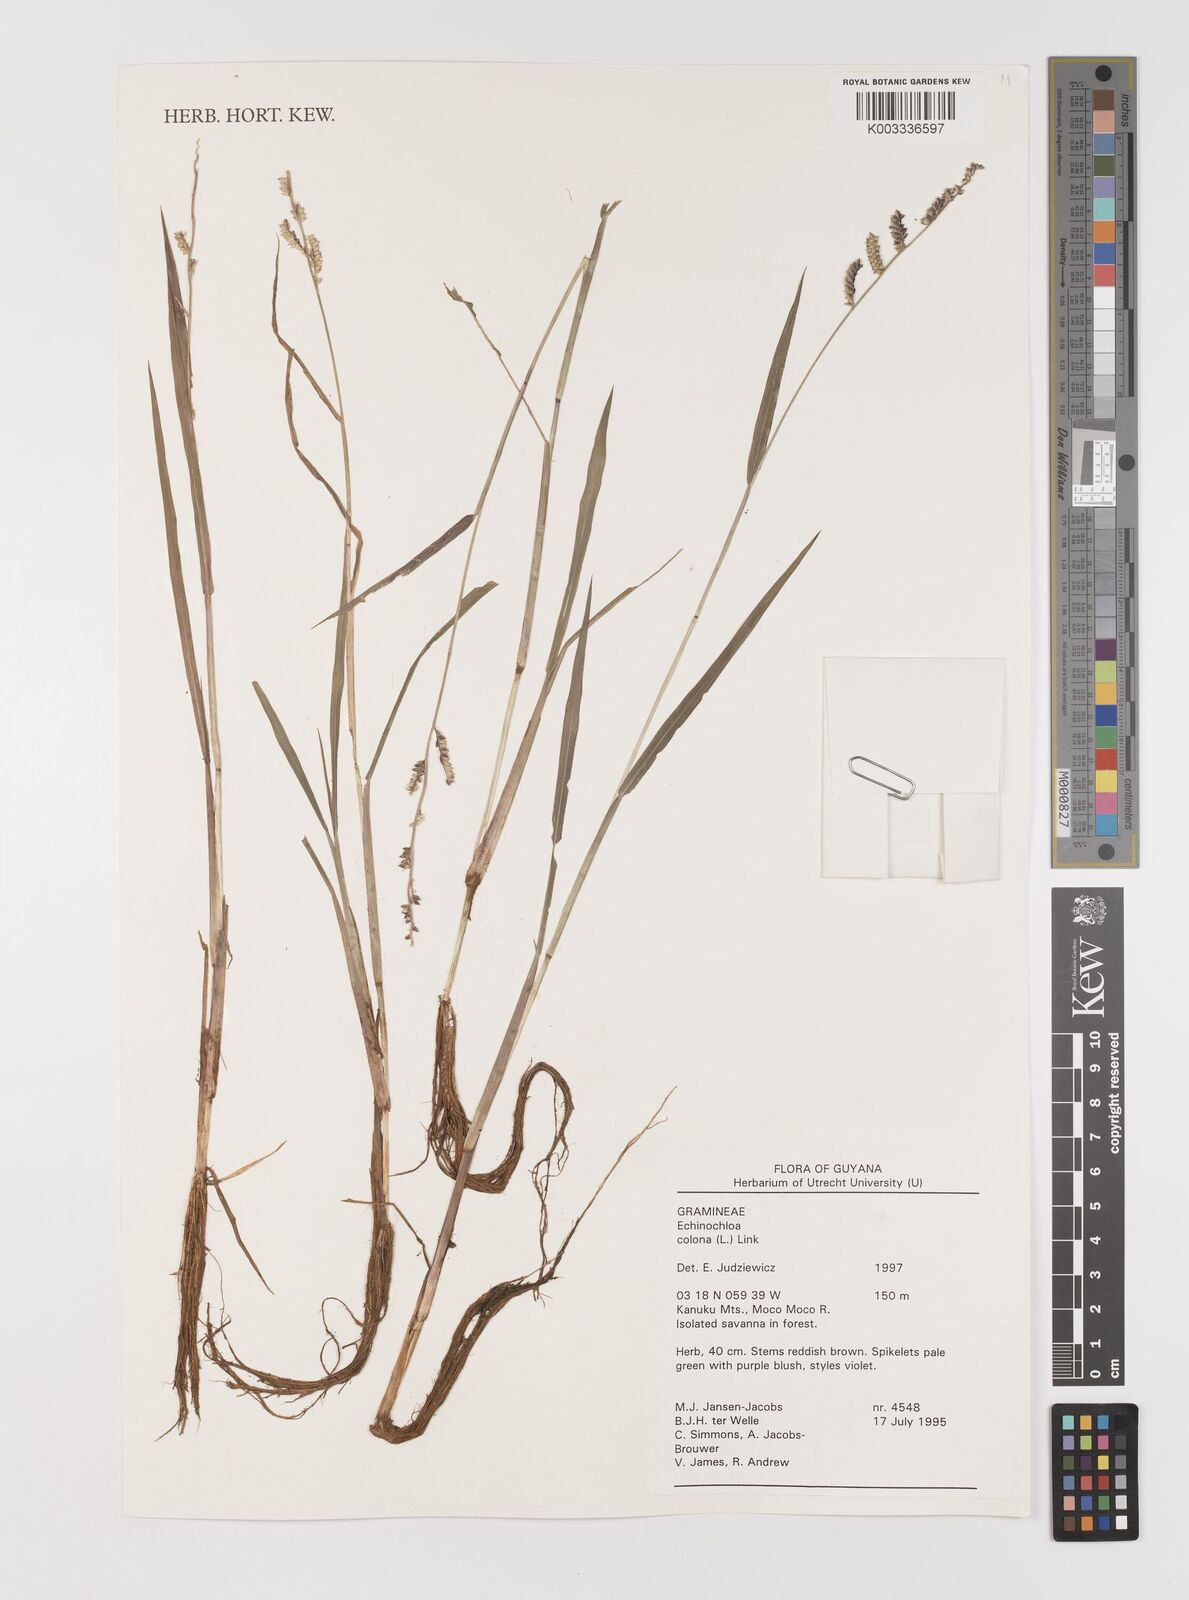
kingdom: Plantae
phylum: Tracheophyta
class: Liliopsida
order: Poales
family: Poaceae
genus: Echinochloa
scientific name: Echinochloa colonum
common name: Jungle rice
